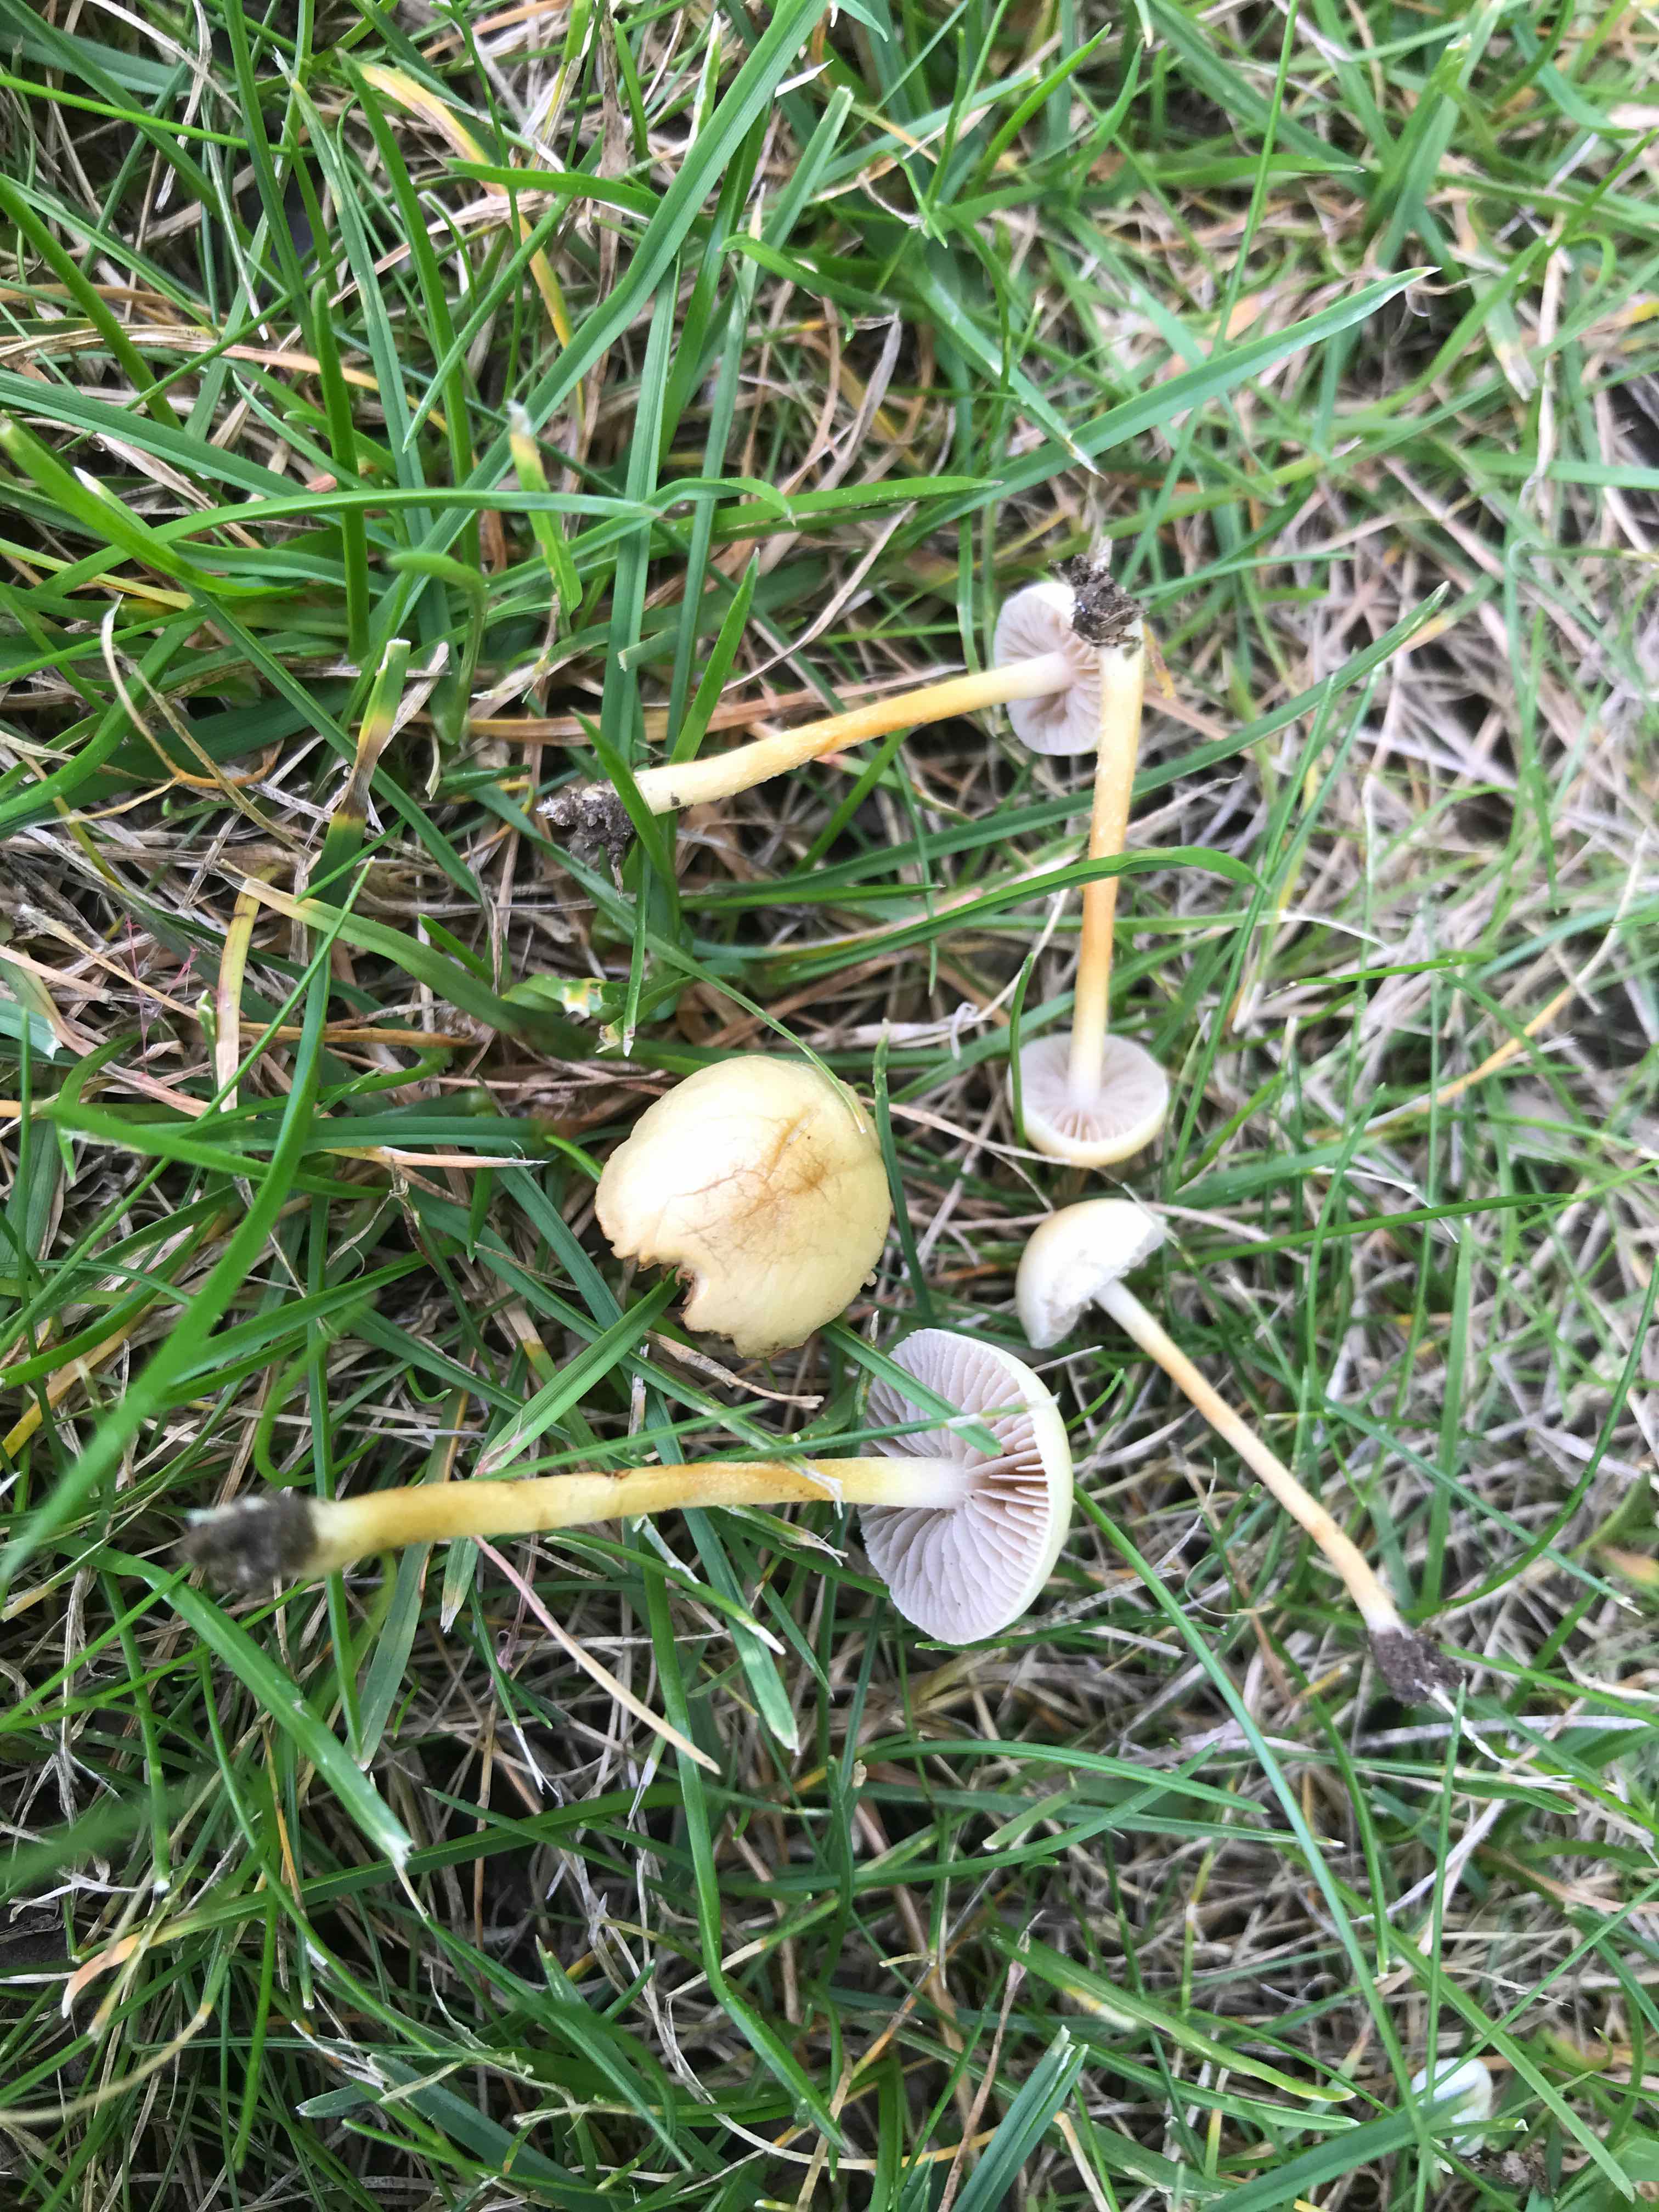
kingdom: Fungi
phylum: Basidiomycota
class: Agaricomycetes
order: Agaricales
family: Strophariaceae
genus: Agrocybe
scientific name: Agrocybe pediades
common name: almindelig agerhat
